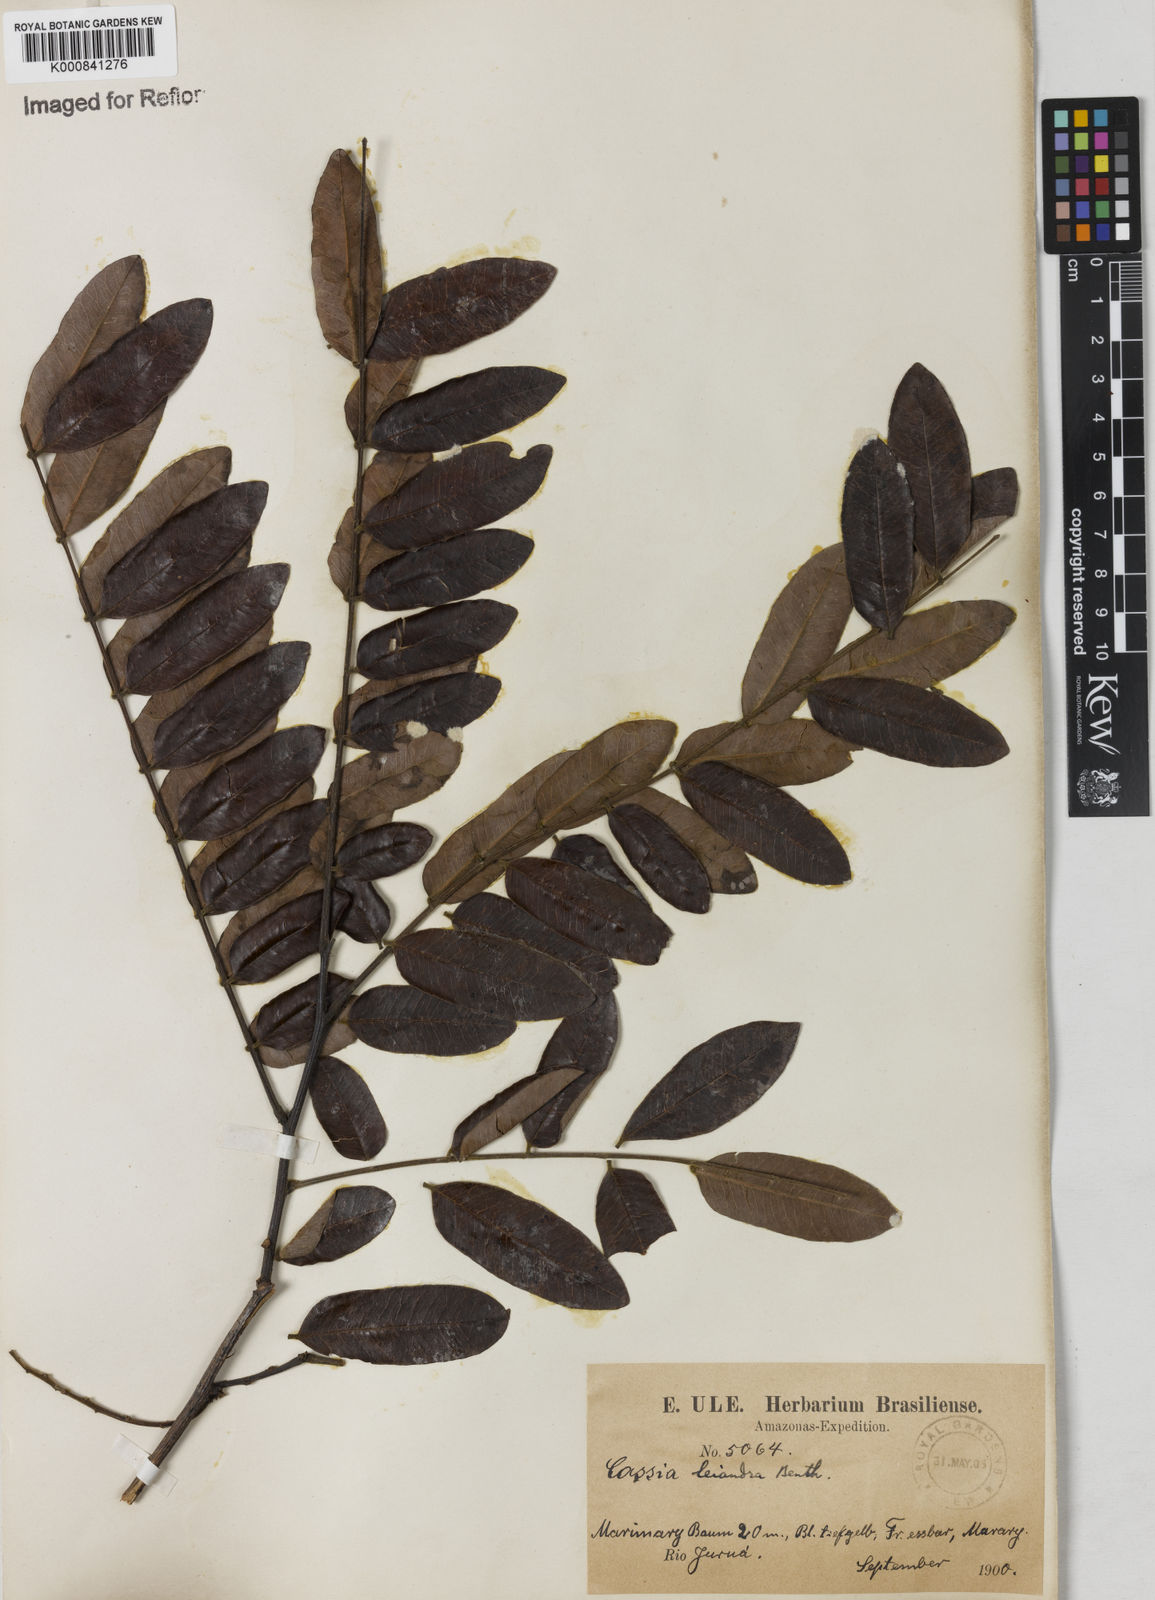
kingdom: Plantae
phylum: Tracheophyta
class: Magnoliopsida
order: Fabales
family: Fabaceae
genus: Cassia
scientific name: Cassia leiandra
